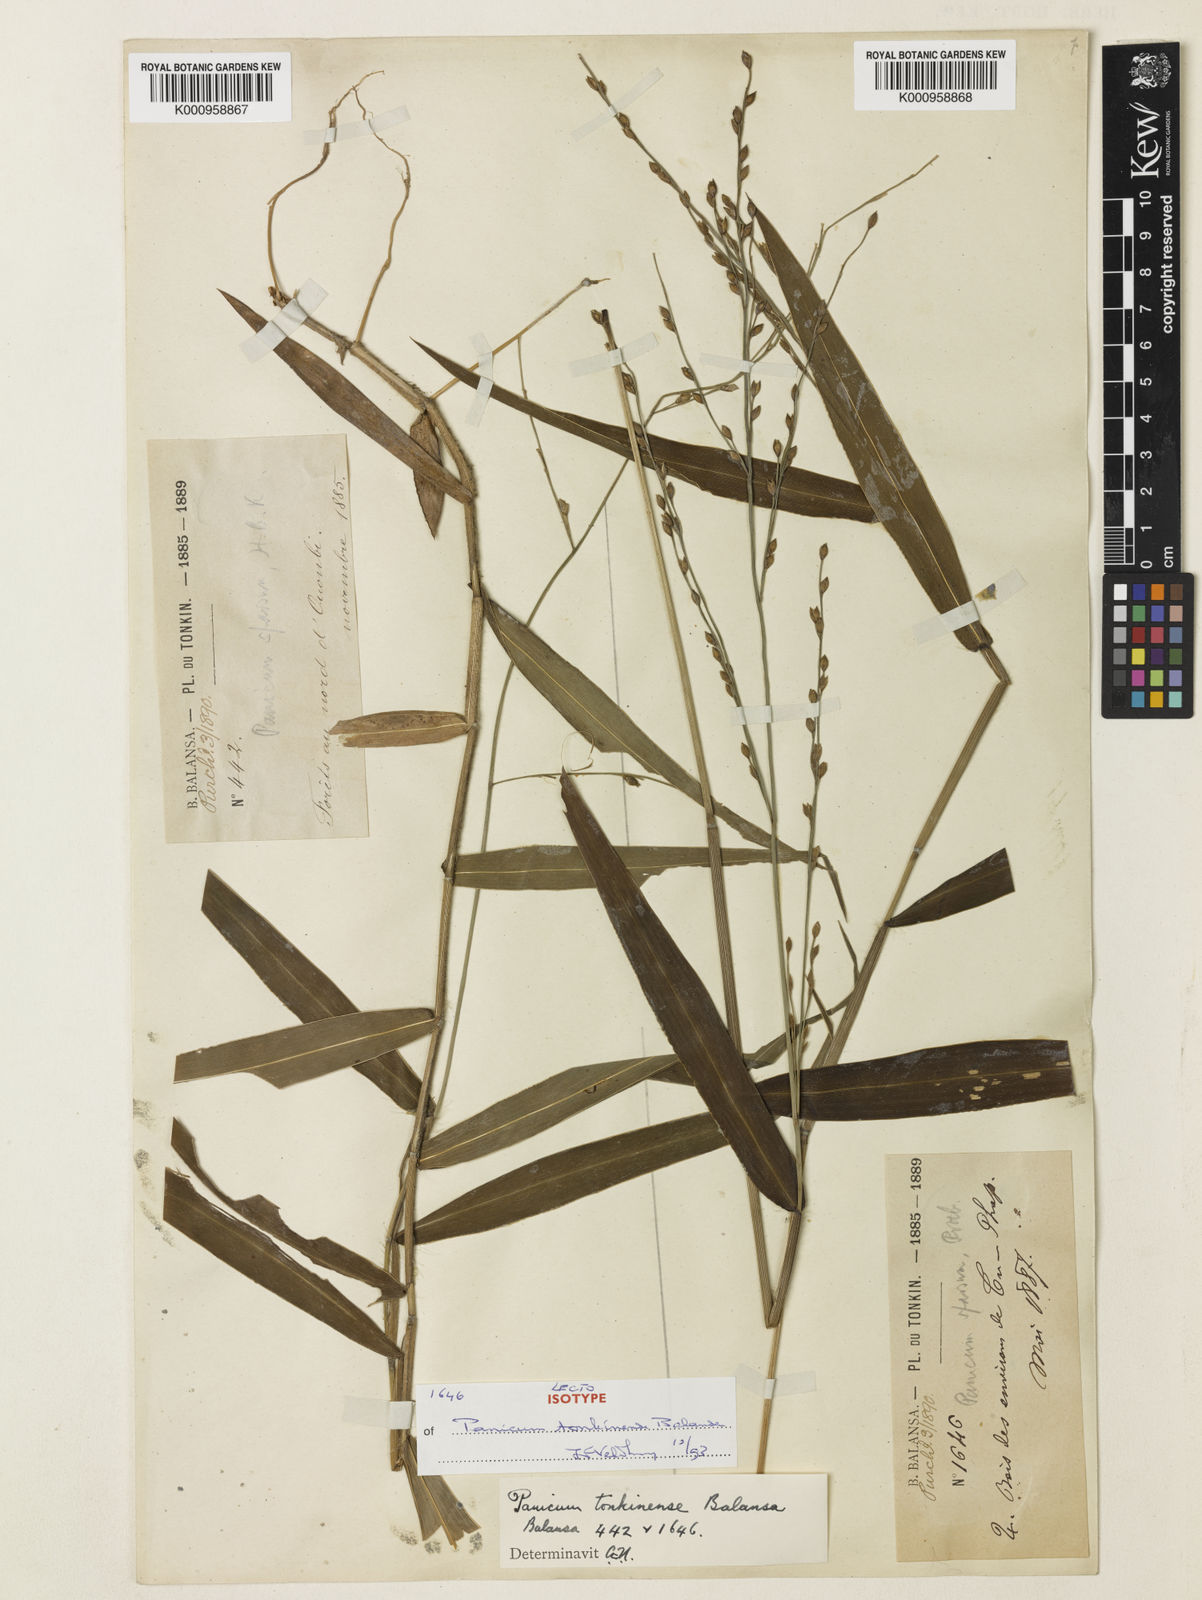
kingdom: Plantae
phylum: Tracheophyta
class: Liliopsida
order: Poales
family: Poaceae
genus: Acroceras
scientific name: Acroceras
